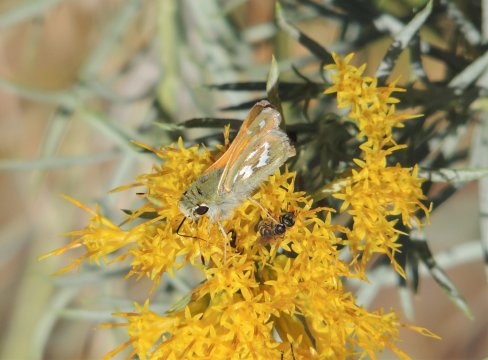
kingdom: Animalia
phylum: Arthropoda
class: Insecta
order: Lepidoptera
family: Hesperiidae
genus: Hesperia
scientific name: Hesperia comma
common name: Western Branded Skipper
